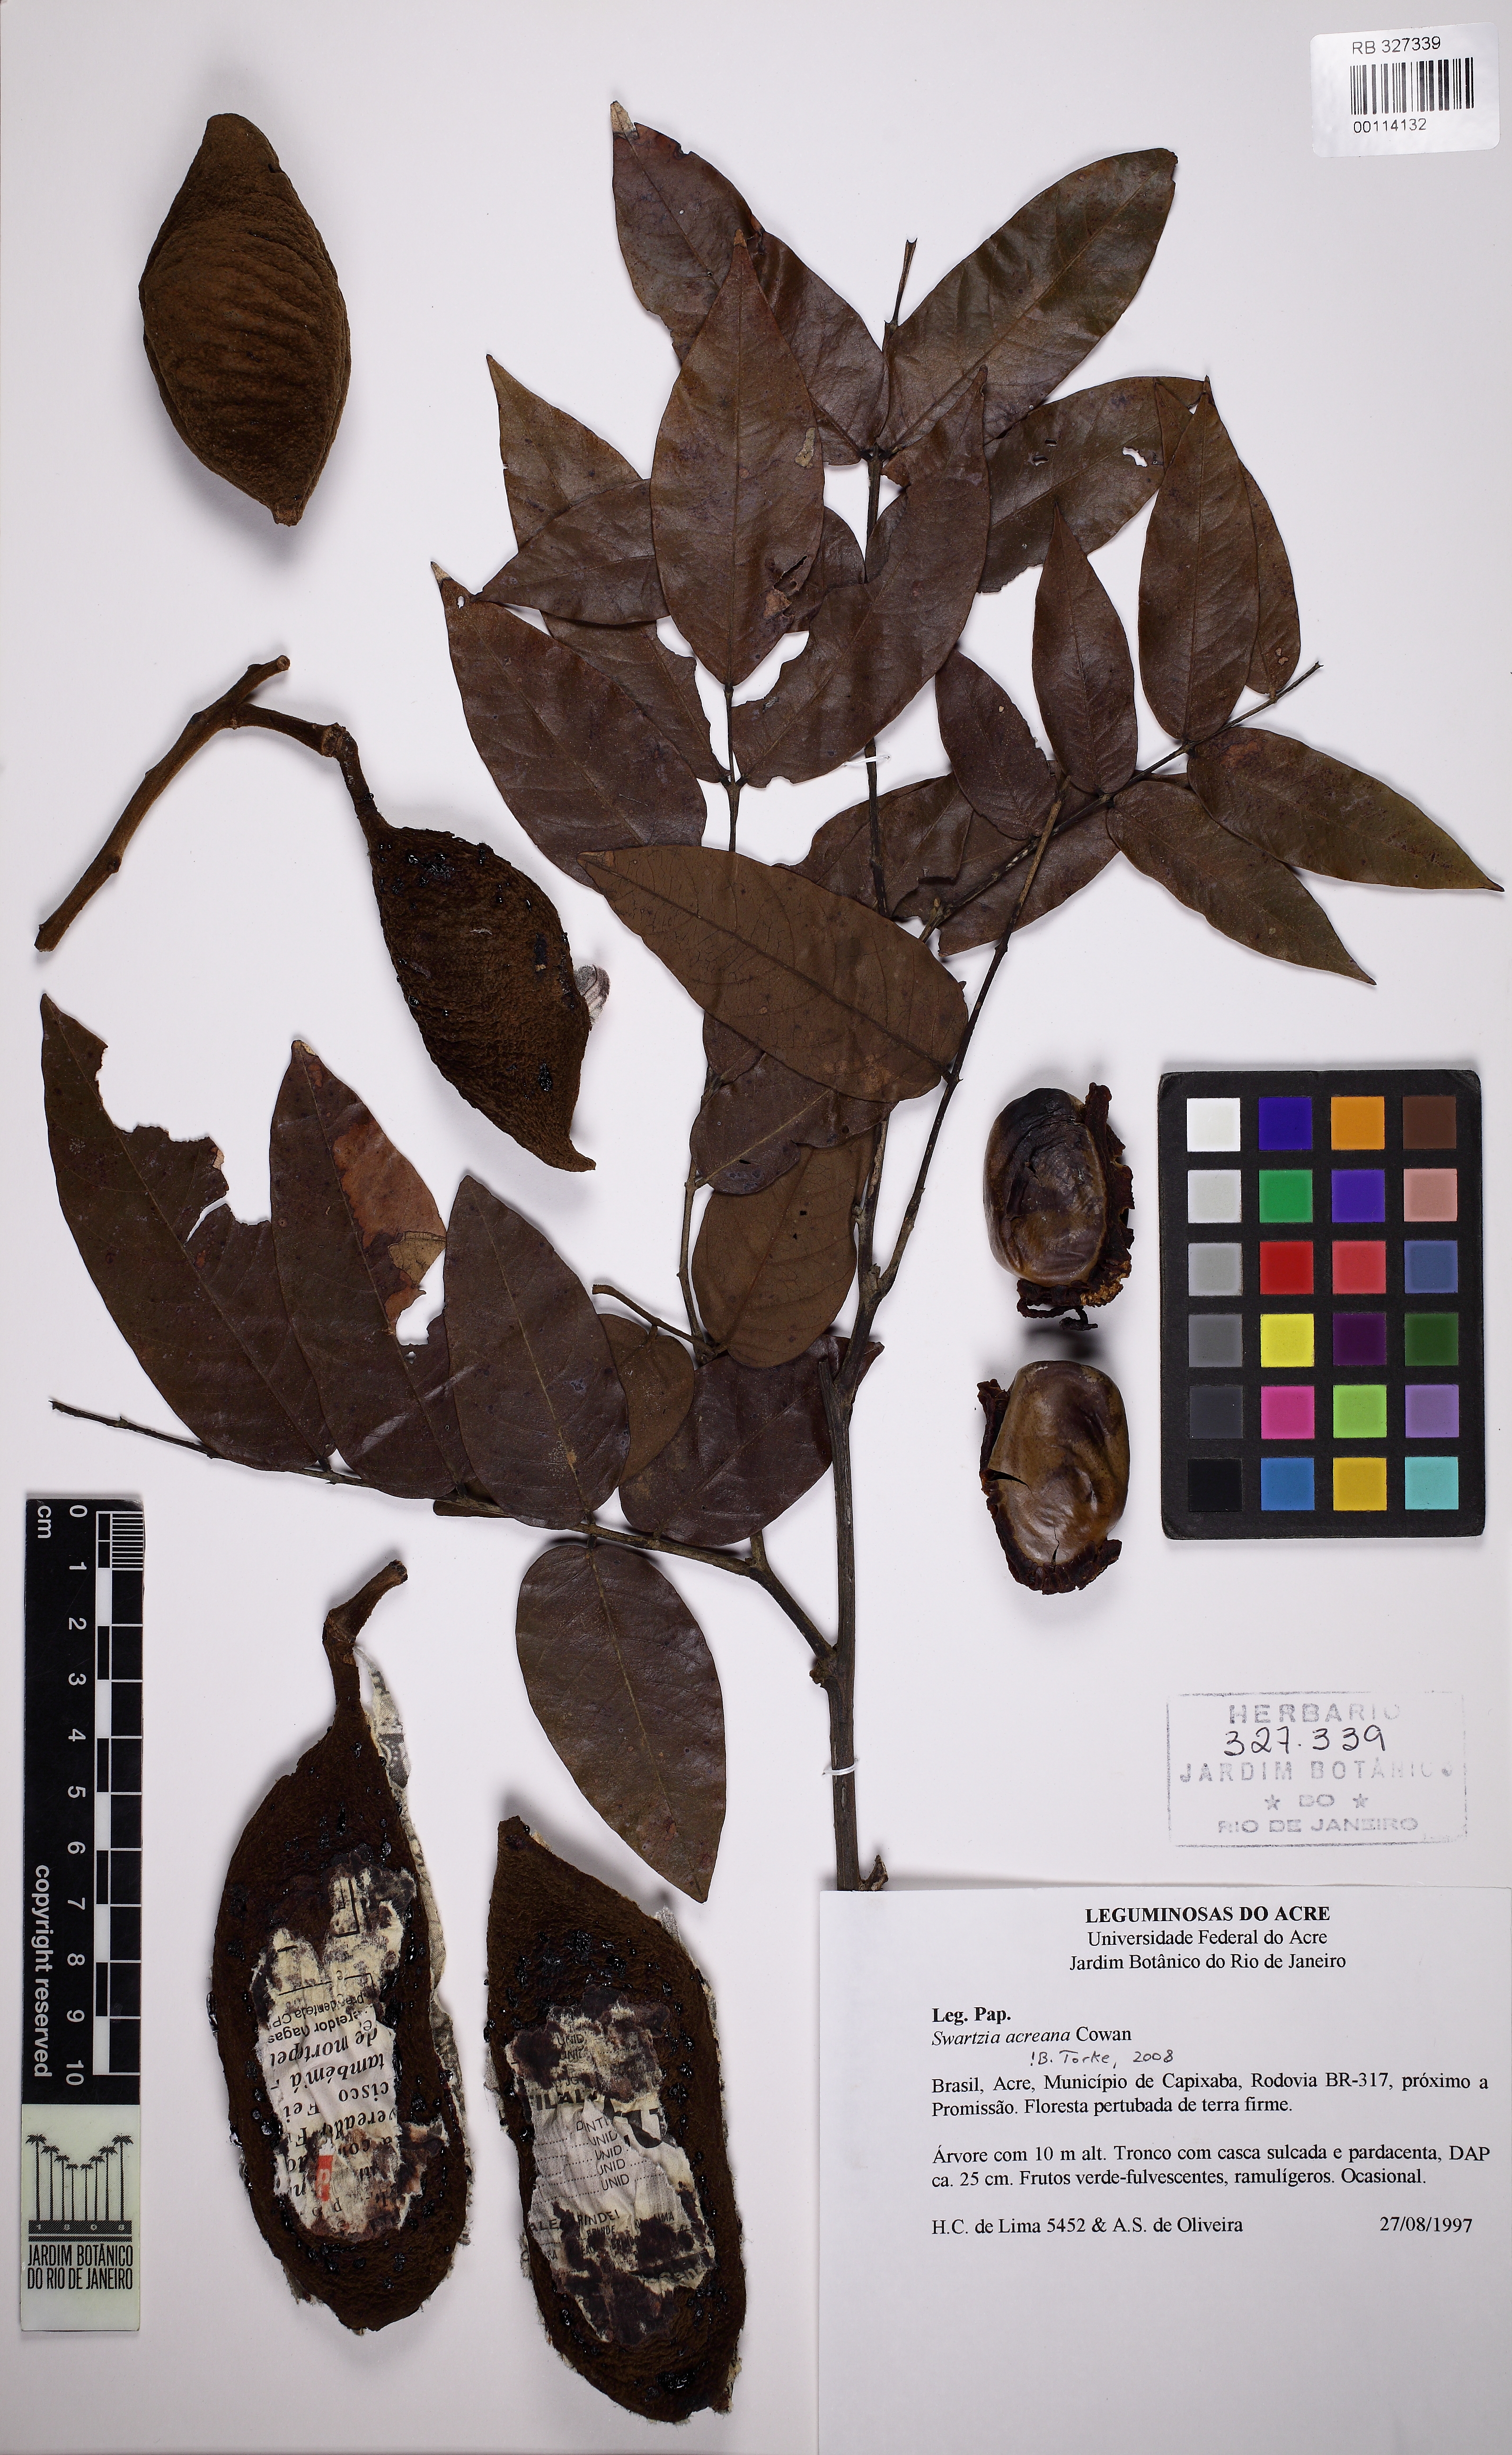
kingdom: Plantae
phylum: Tracheophyta
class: Magnoliopsida
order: Fabales
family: Fabaceae
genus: Swartzia
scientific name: Swartzia acreana
